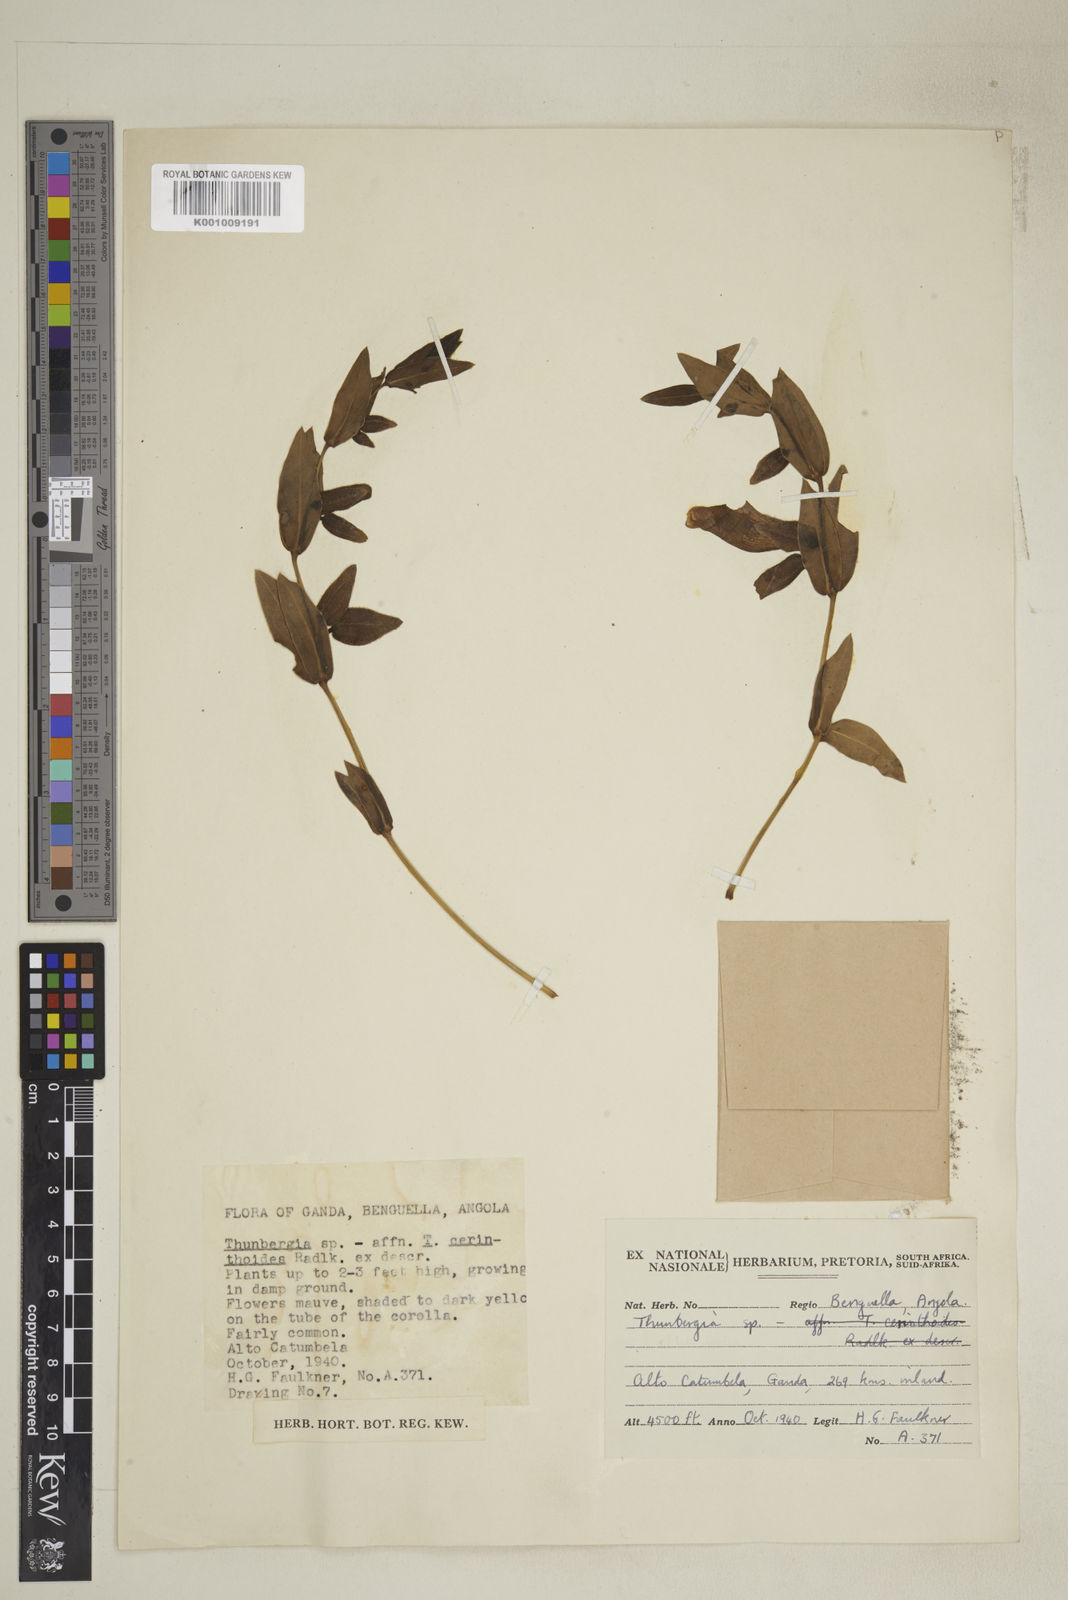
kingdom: Plantae
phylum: Tracheophyta
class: Magnoliopsida
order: Lamiales
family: Acanthaceae
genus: Thunbergia
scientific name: Thunbergia hyalina
